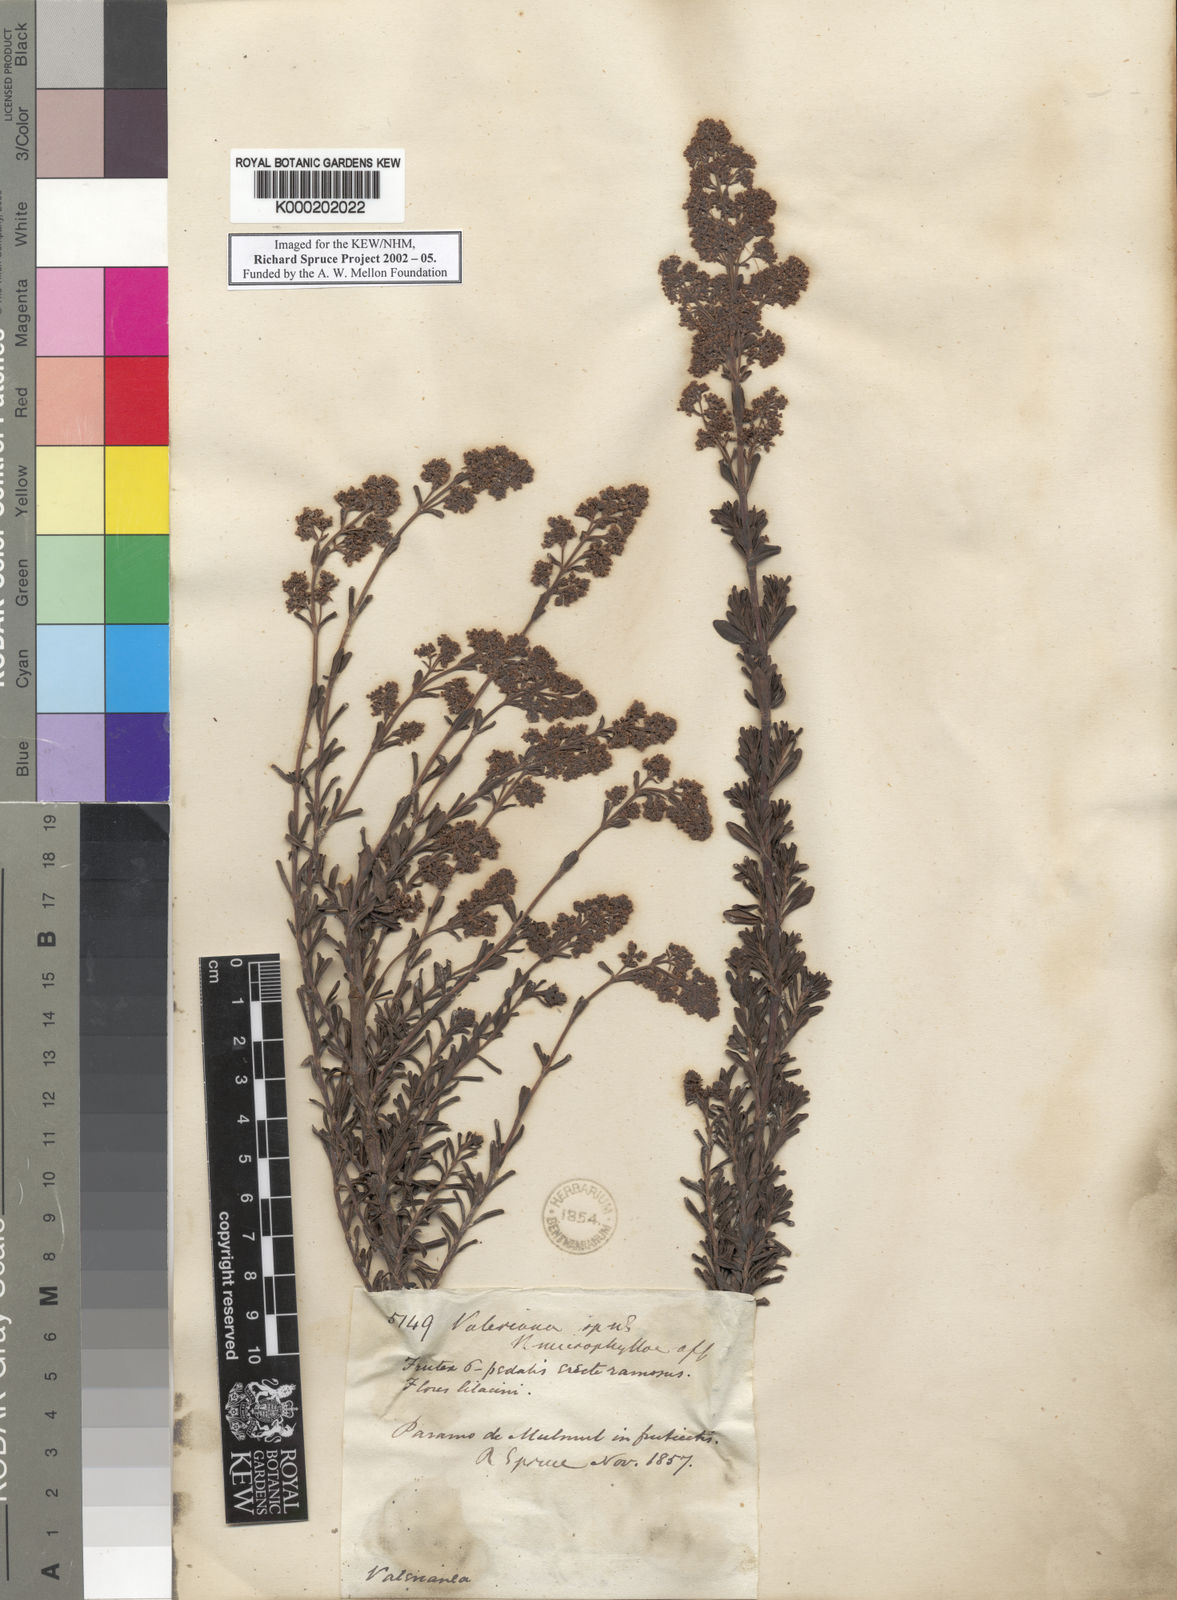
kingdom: Plantae
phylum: Tracheophyta
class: Magnoliopsida
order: Dipsacales
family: Caprifoliaceae
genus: Valeriana
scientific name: Valeriana microphylla
